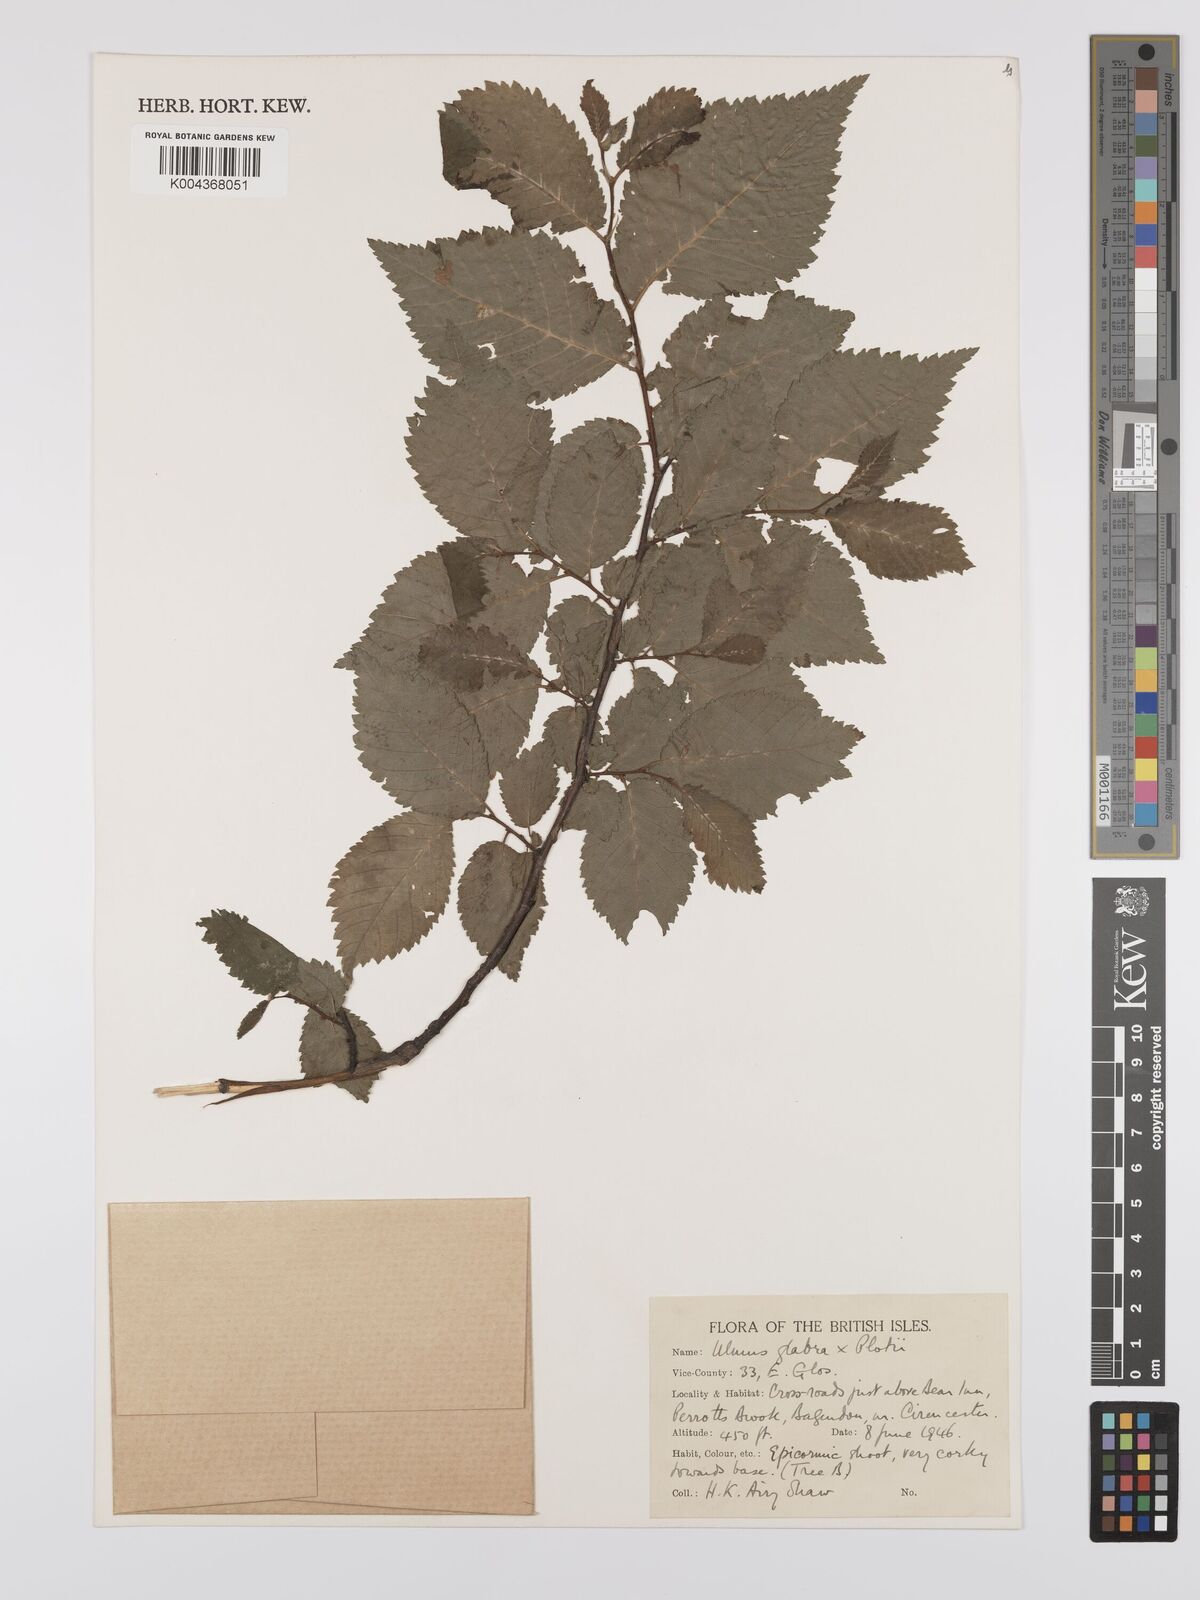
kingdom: Plantae
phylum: Tracheophyta
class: Magnoliopsida
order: Rosales
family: Ulmaceae
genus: Ulmus
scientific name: Ulmus
